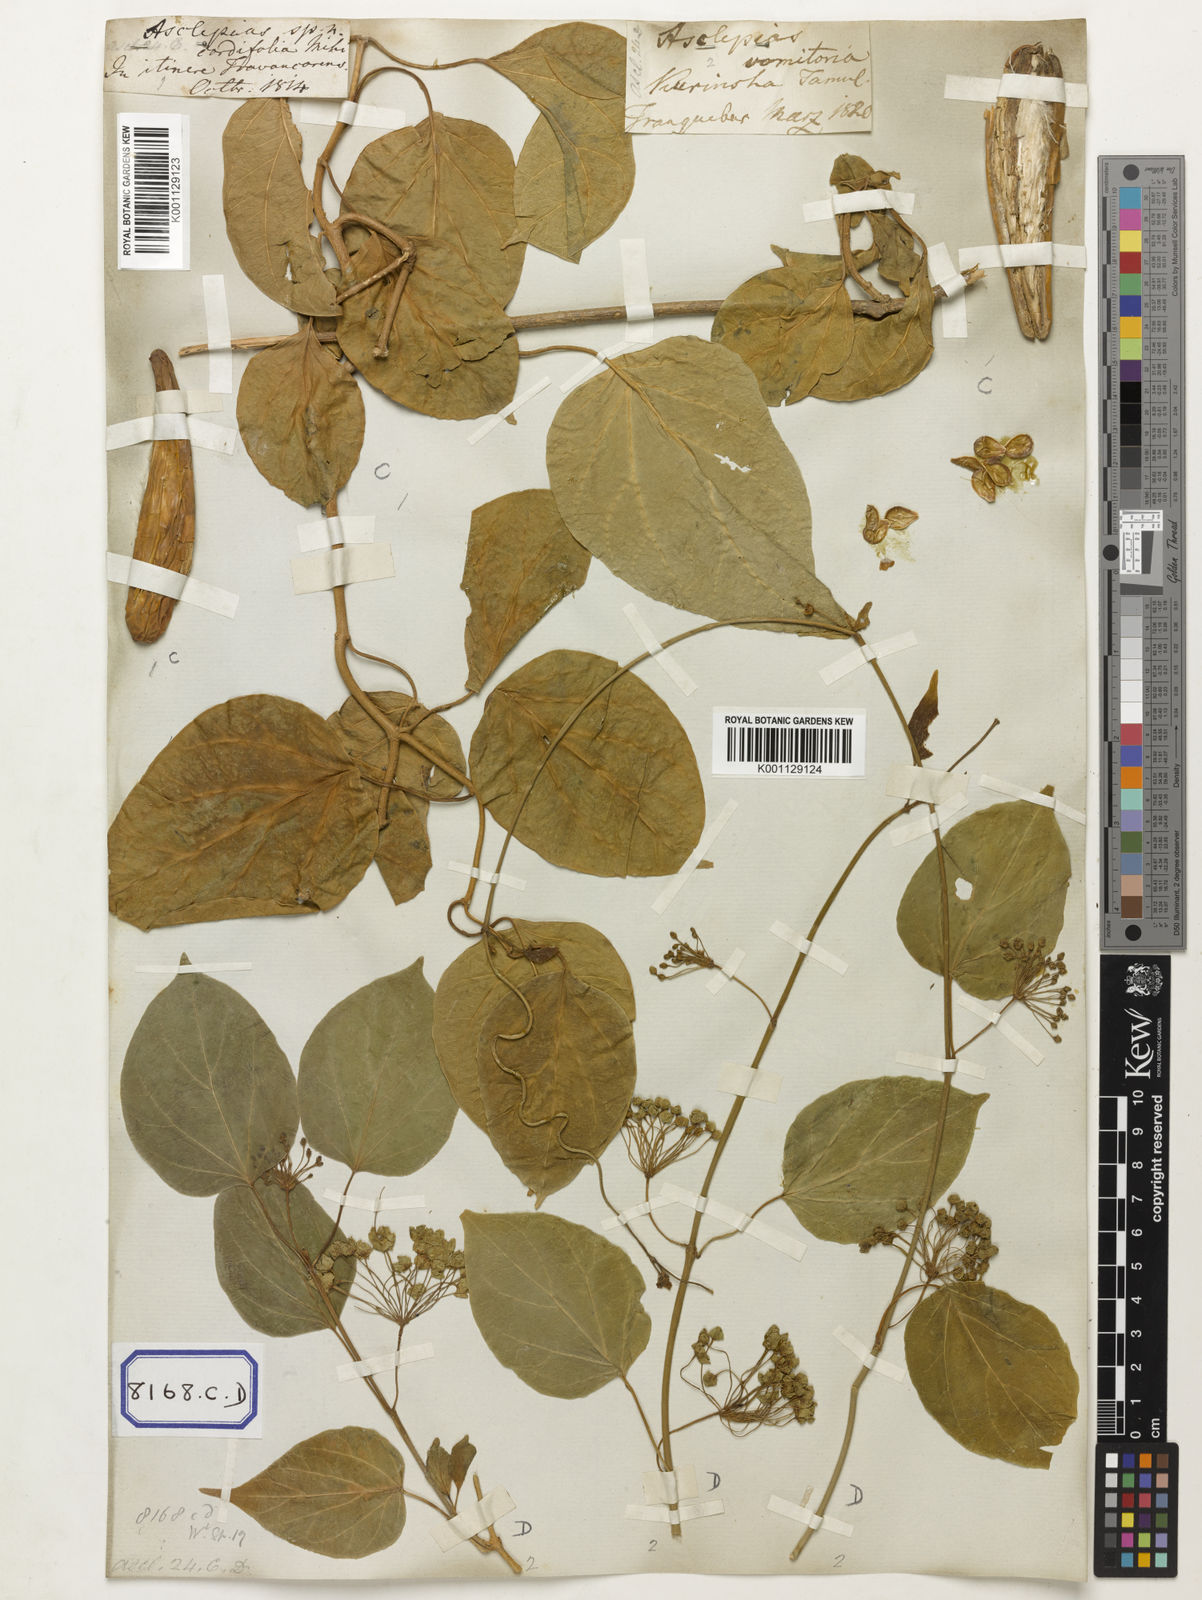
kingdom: Plantae
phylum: Tracheophyta
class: Magnoliopsida
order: Gentianales
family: Apocynaceae
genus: Stephanotis
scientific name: Stephanotis volubilis
